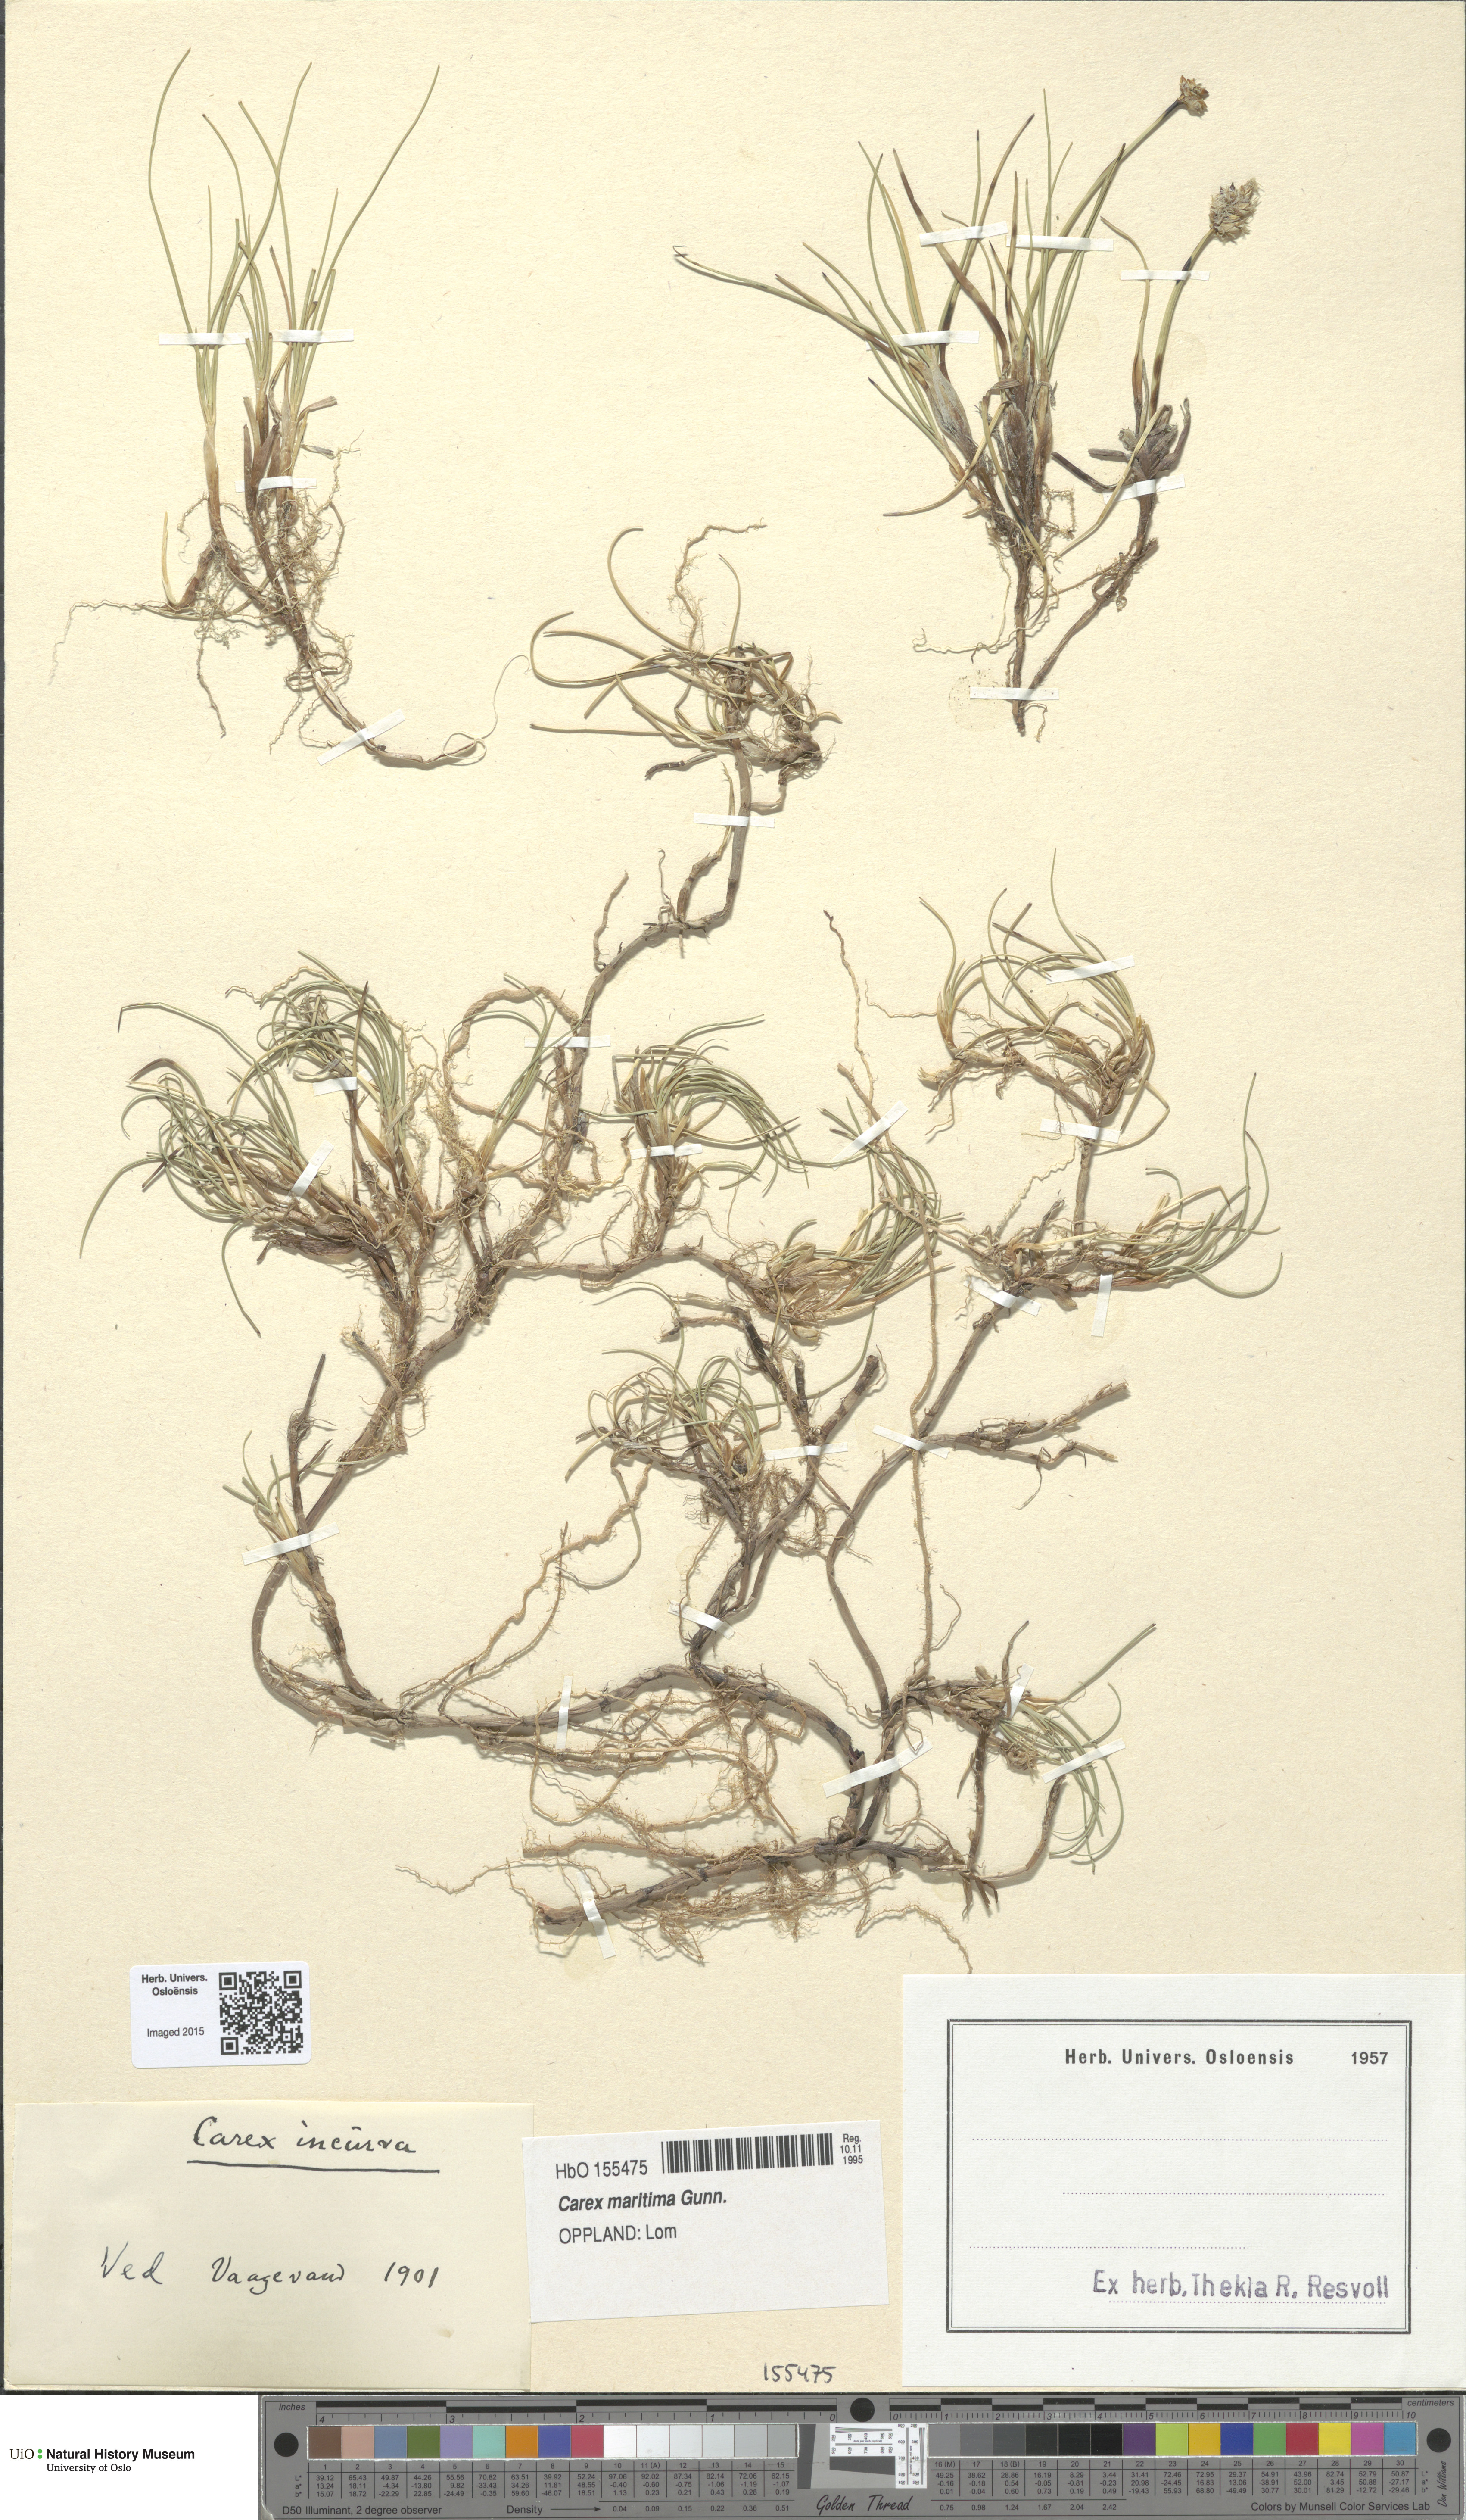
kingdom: Plantae
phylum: Tracheophyta
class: Liliopsida
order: Poales
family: Cyperaceae
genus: Carex
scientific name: Carex maritima
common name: Curved sedge
